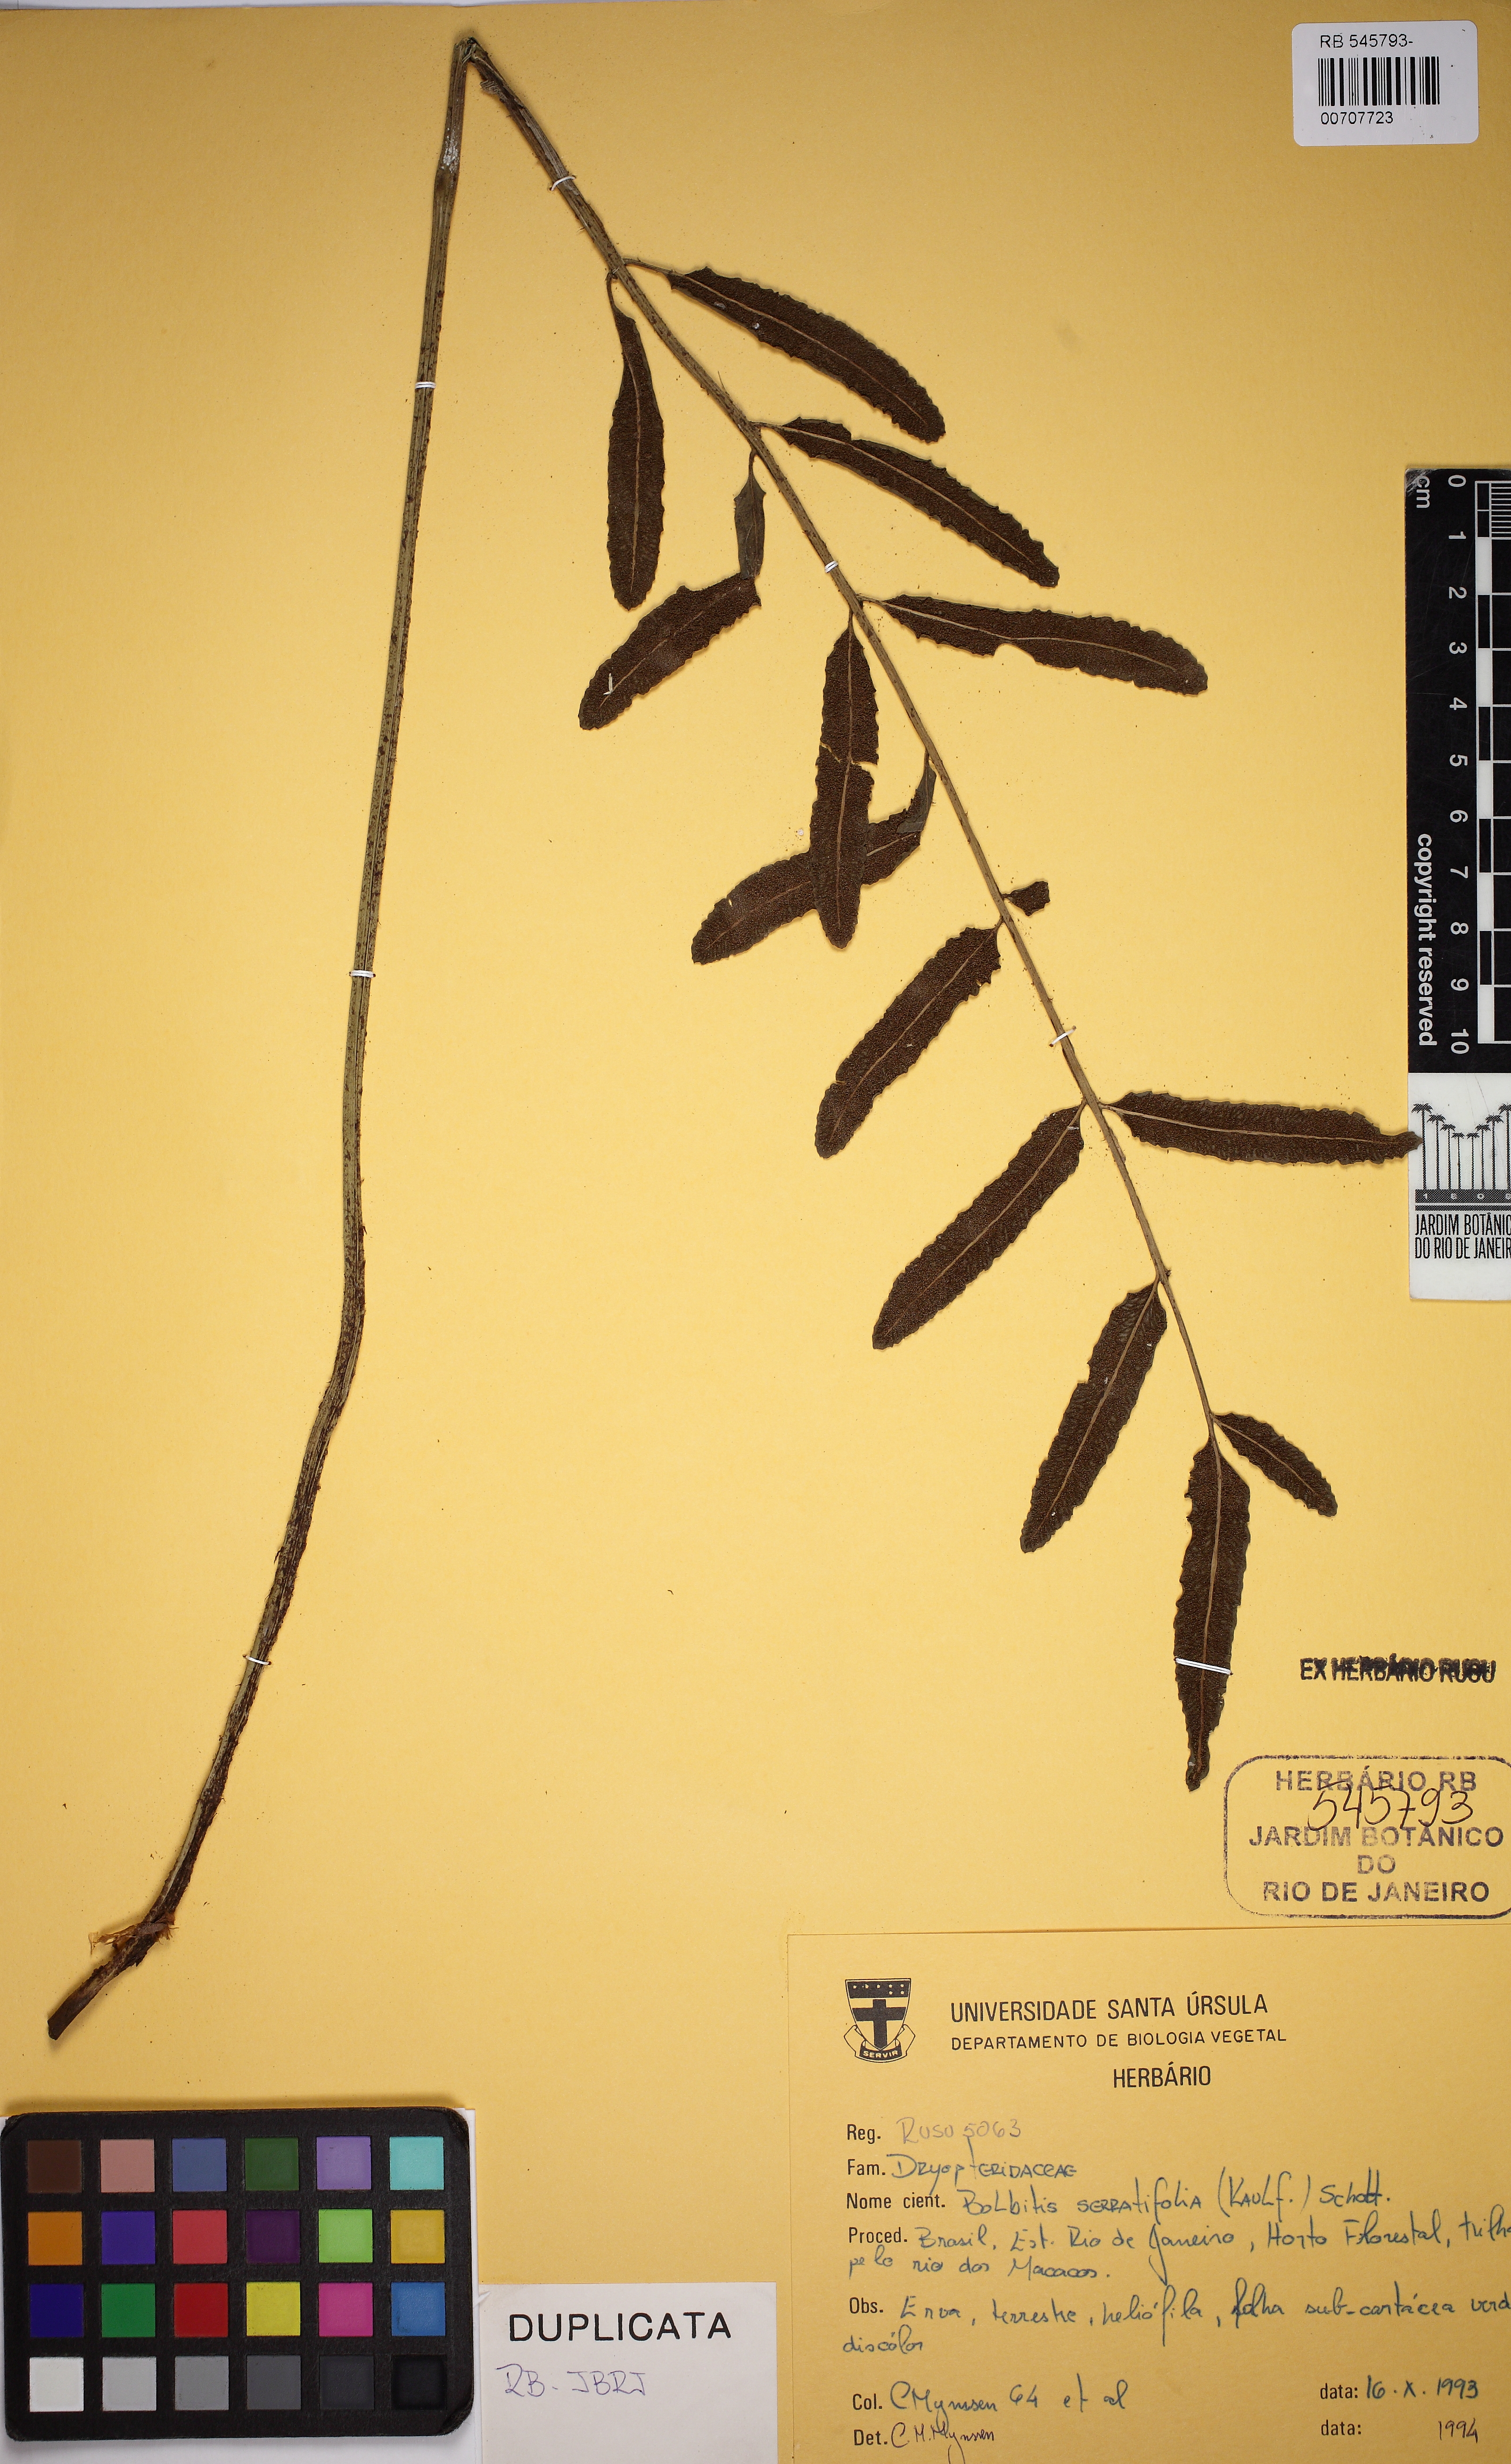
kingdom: Plantae
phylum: Tracheophyta
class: Polypodiopsida
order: Polypodiales
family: Dryopteridaceae
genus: Bolbitis
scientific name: Bolbitis serratifolia
